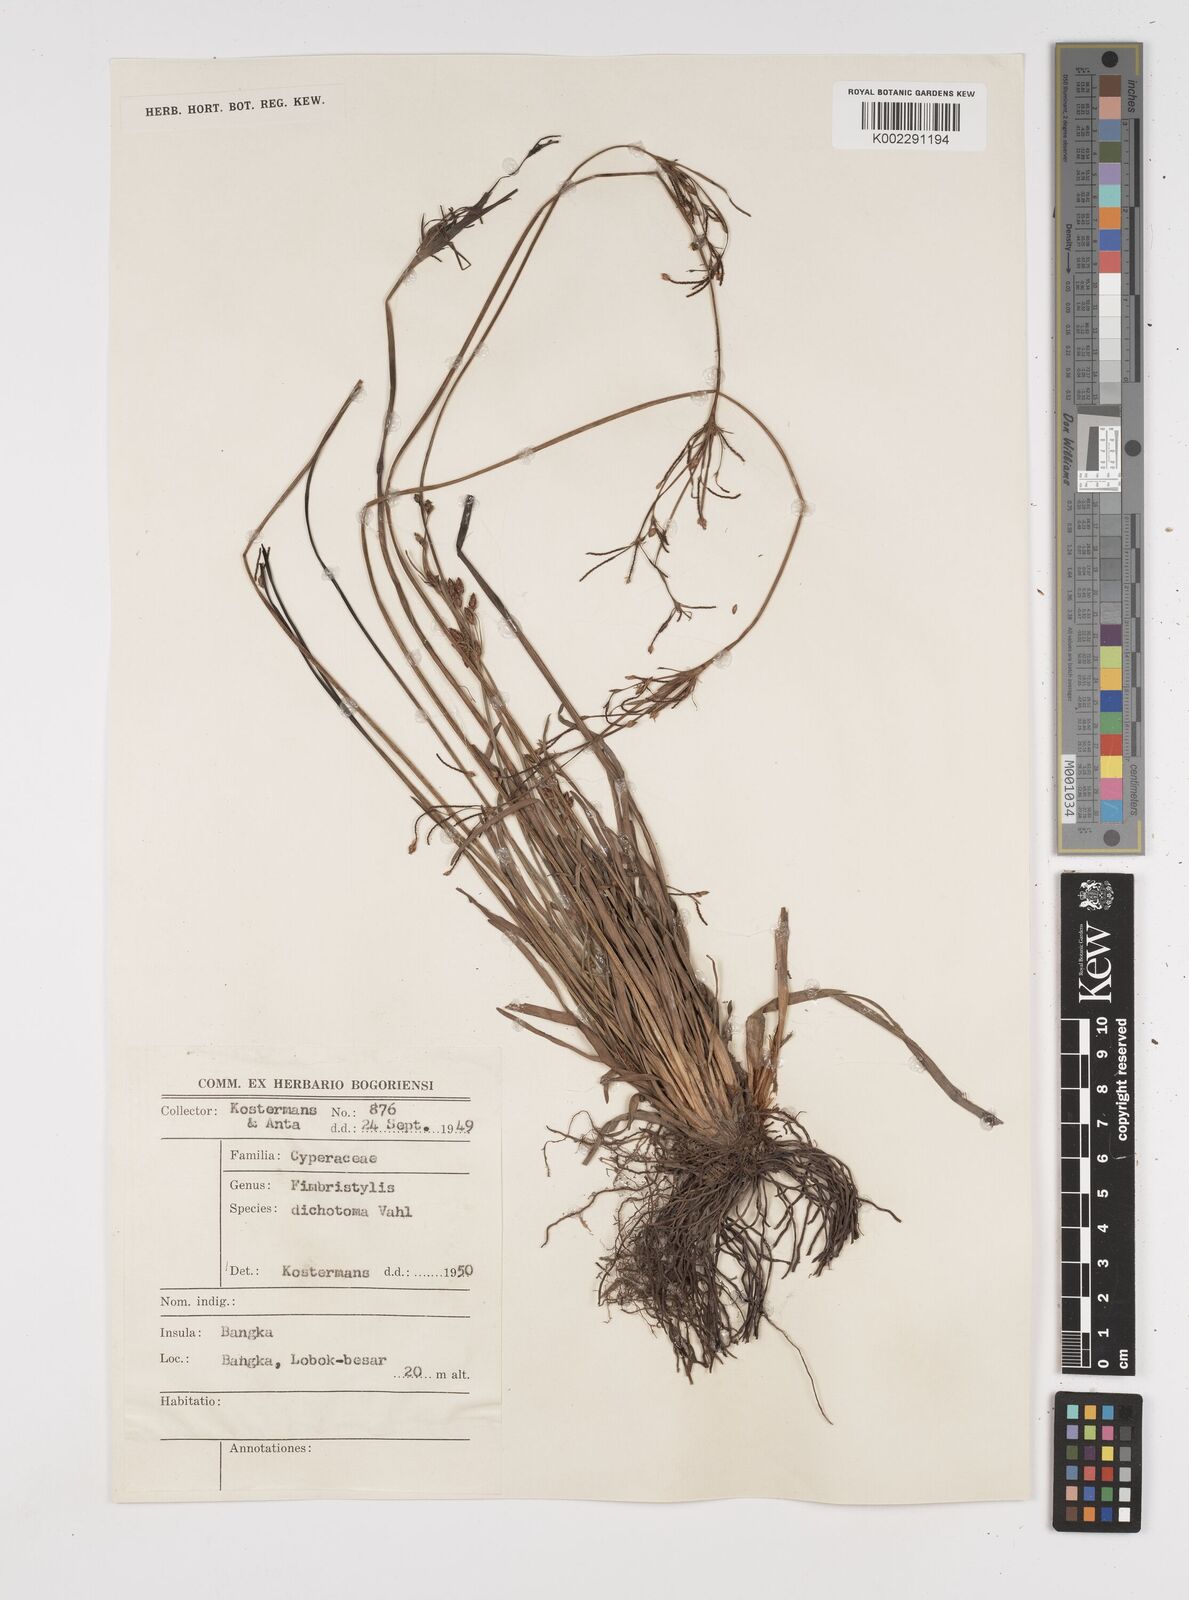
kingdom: Plantae
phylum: Tracheophyta
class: Liliopsida
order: Poales
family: Cyperaceae
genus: Fimbristylis
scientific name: Fimbristylis dichotoma
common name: Forked fimbry
